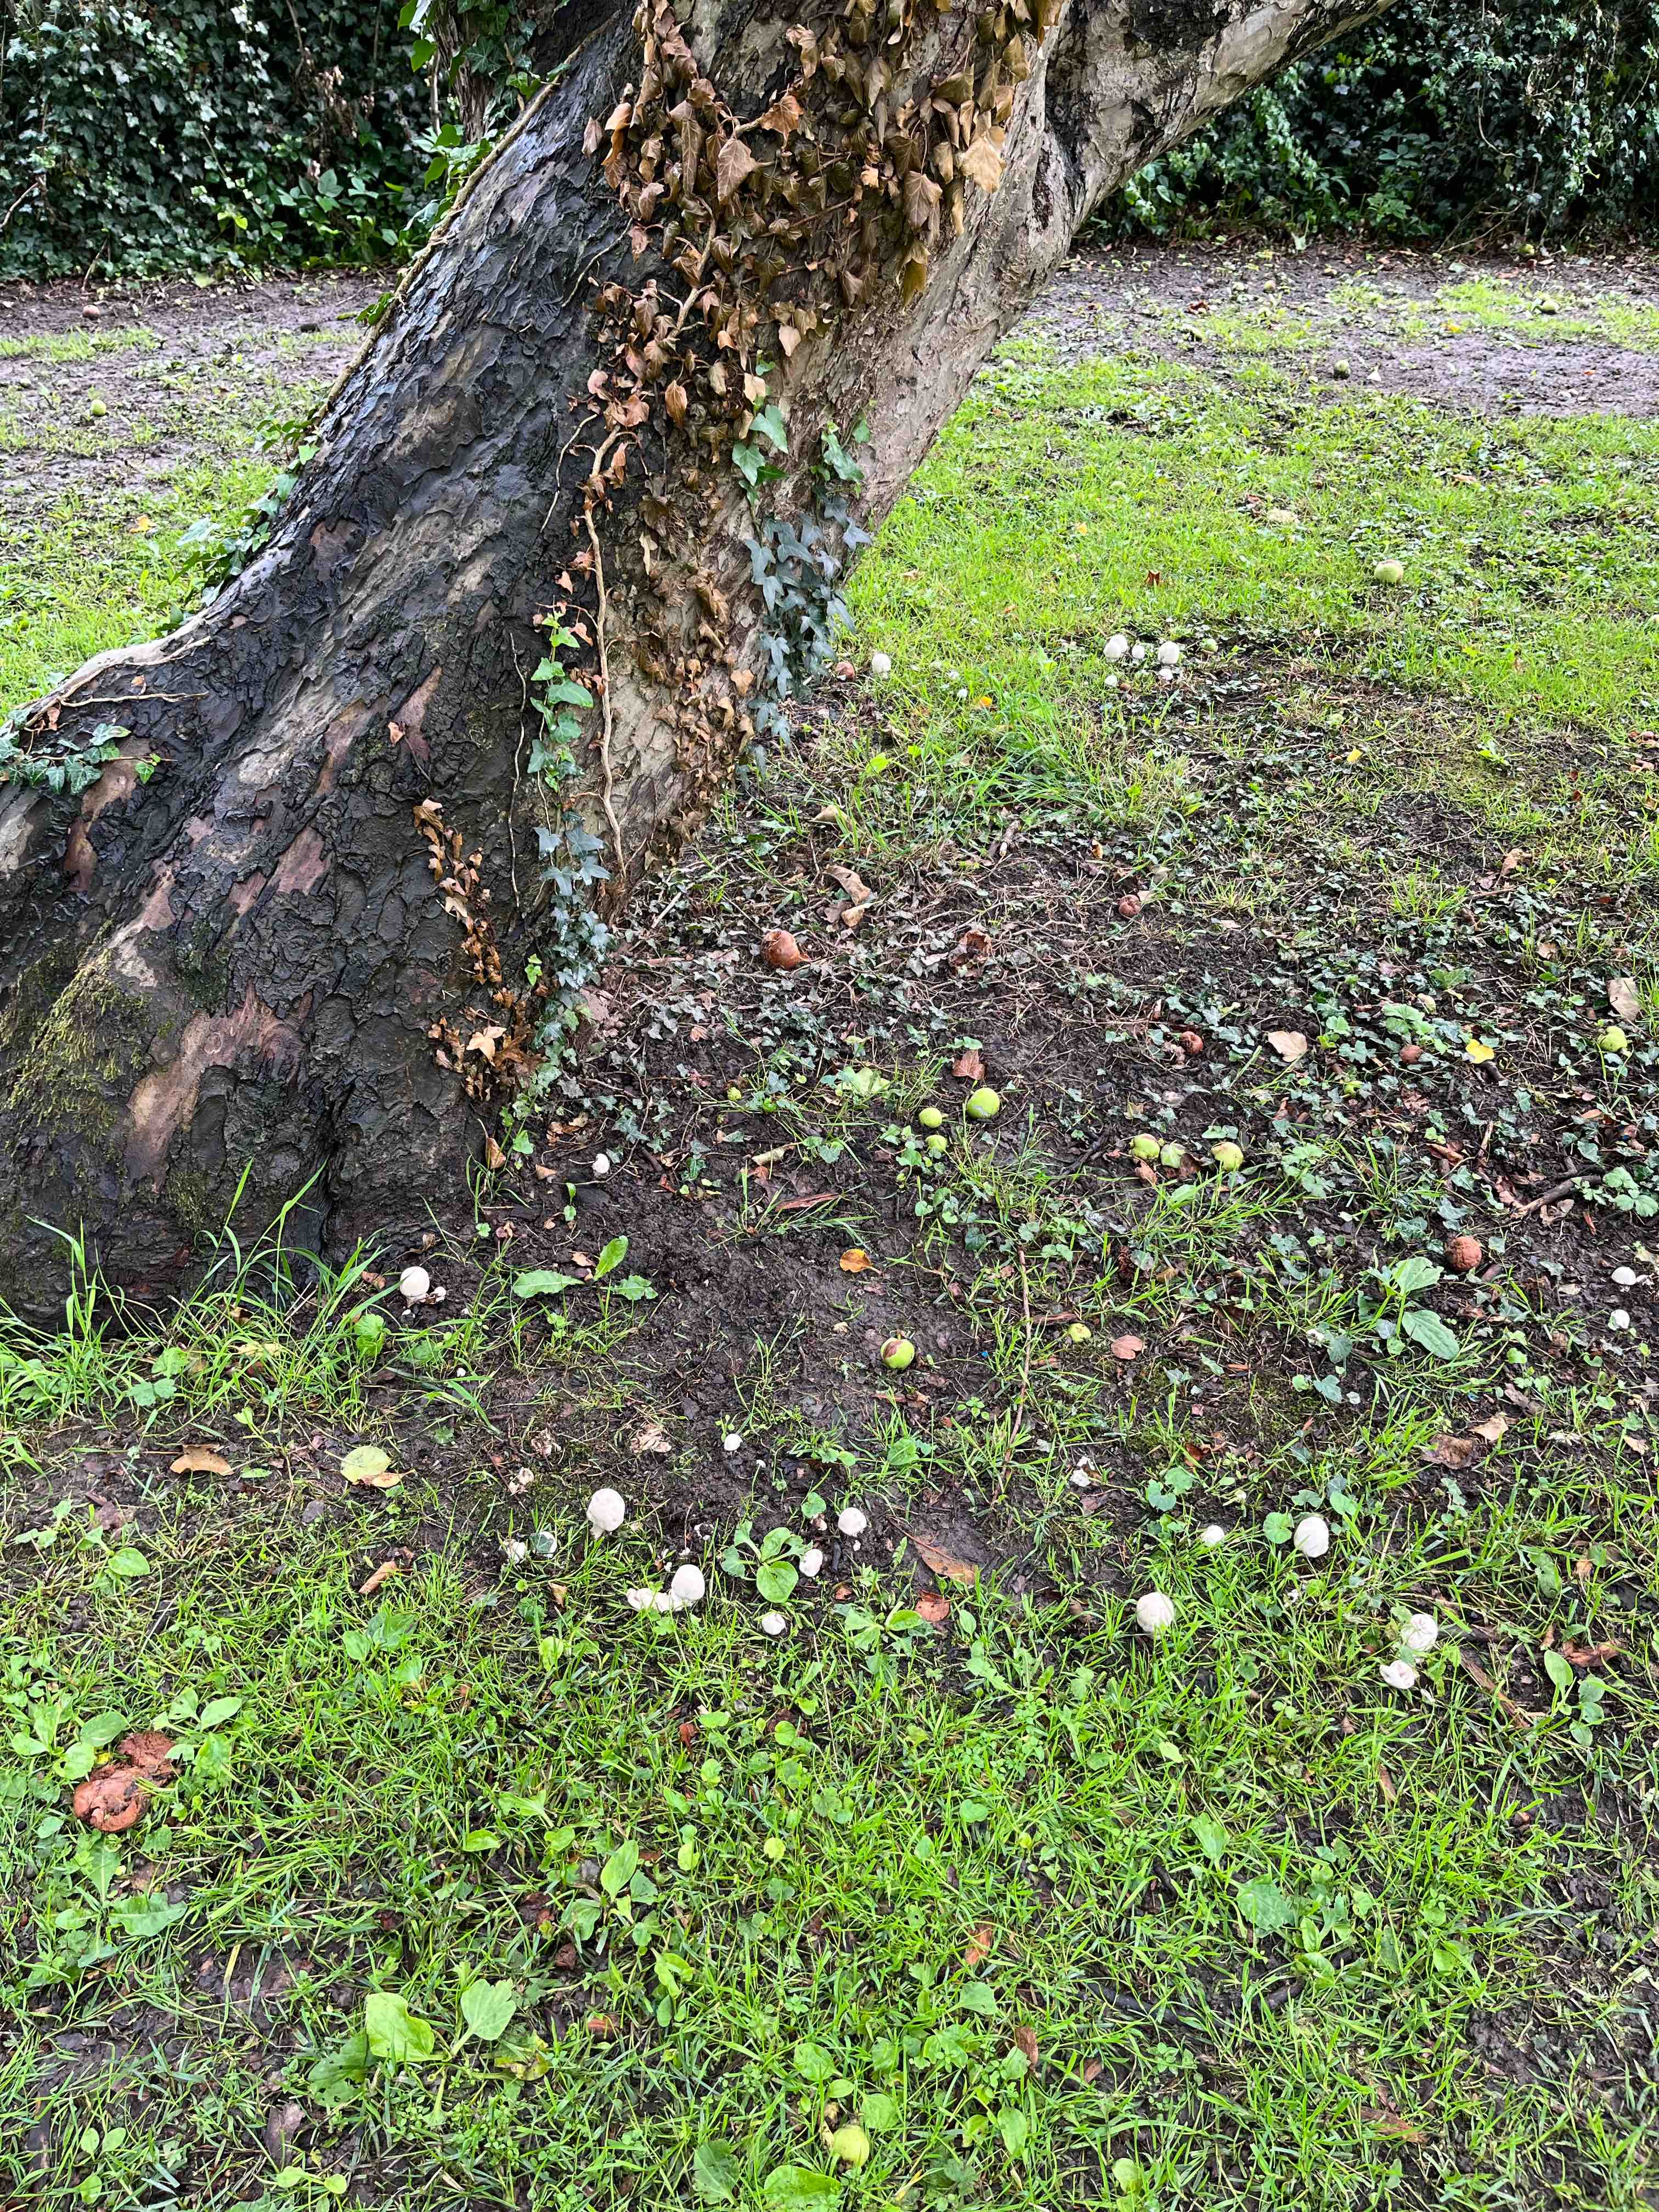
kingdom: Fungi
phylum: Basidiomycota
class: Agaricomycetes
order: Agaricales
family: Agaricaceae
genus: Agaricus
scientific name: Agaricus xanthodermus
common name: karbol-champignon
